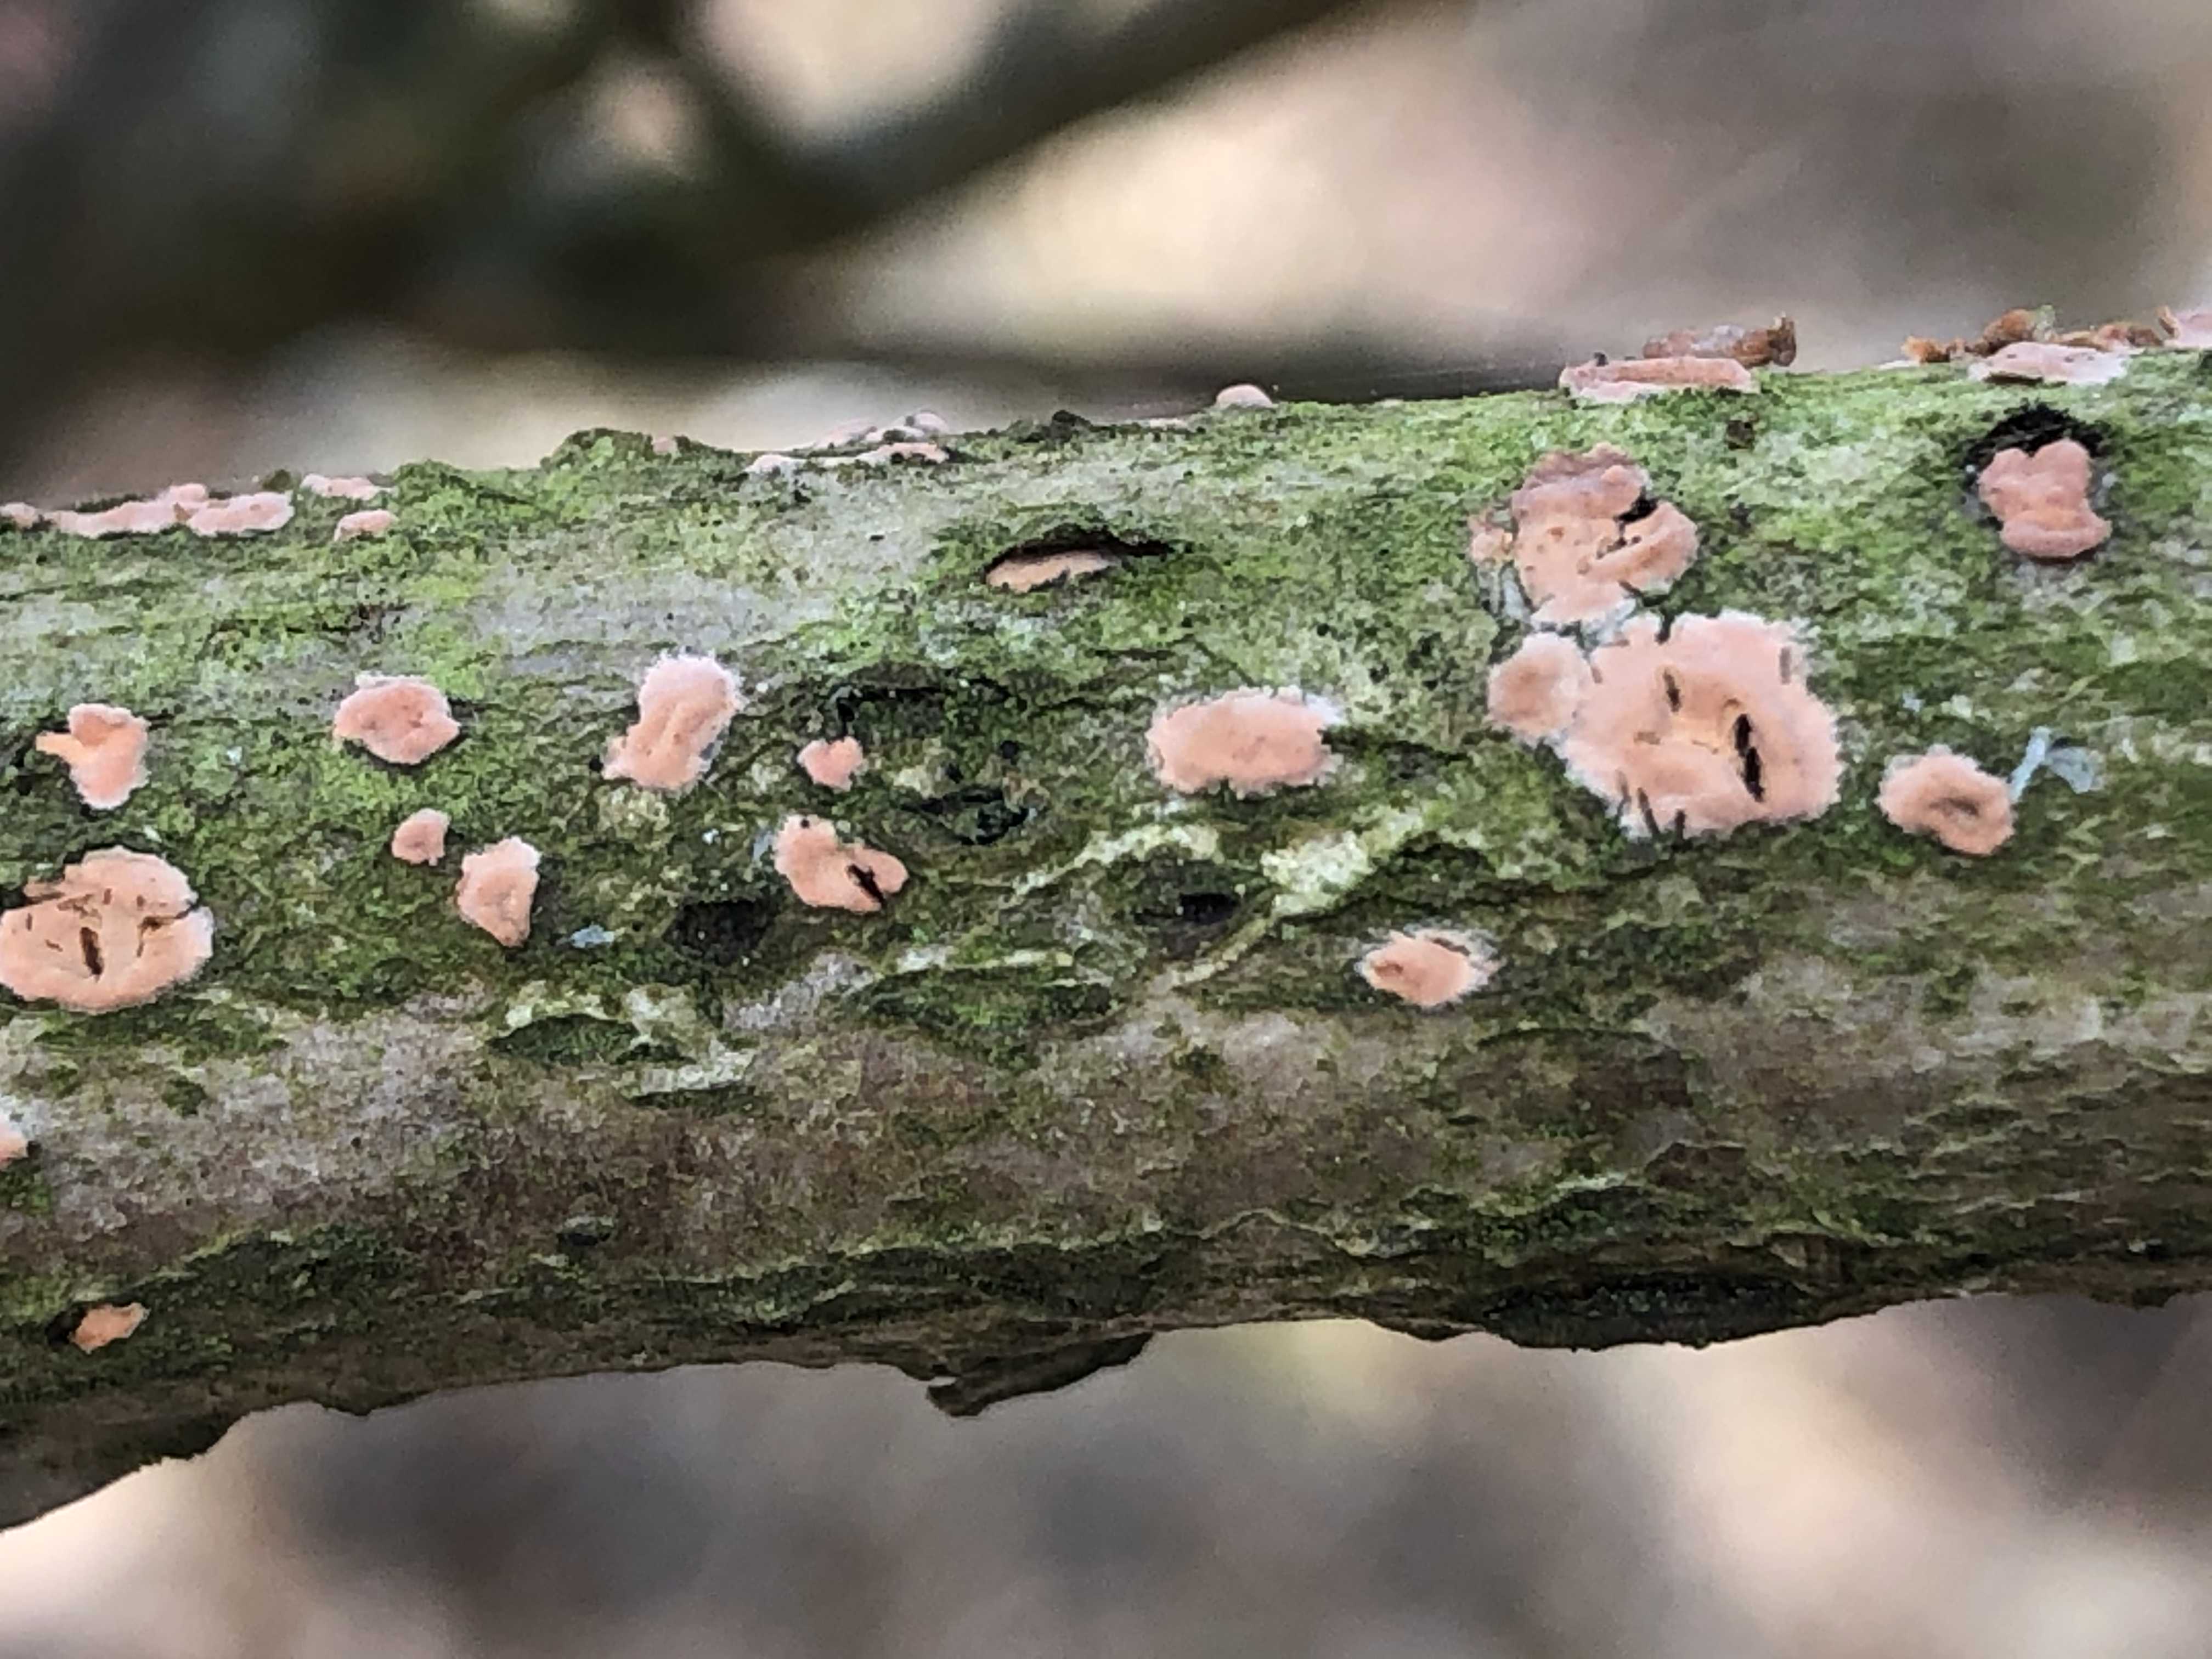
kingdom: Fungi
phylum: Basidiomycota
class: Agaricomycetes
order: Russulales
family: Peniophoraceae
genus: Peniophora
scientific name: Peniophora incarnata
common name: laksefarvet voksskind
